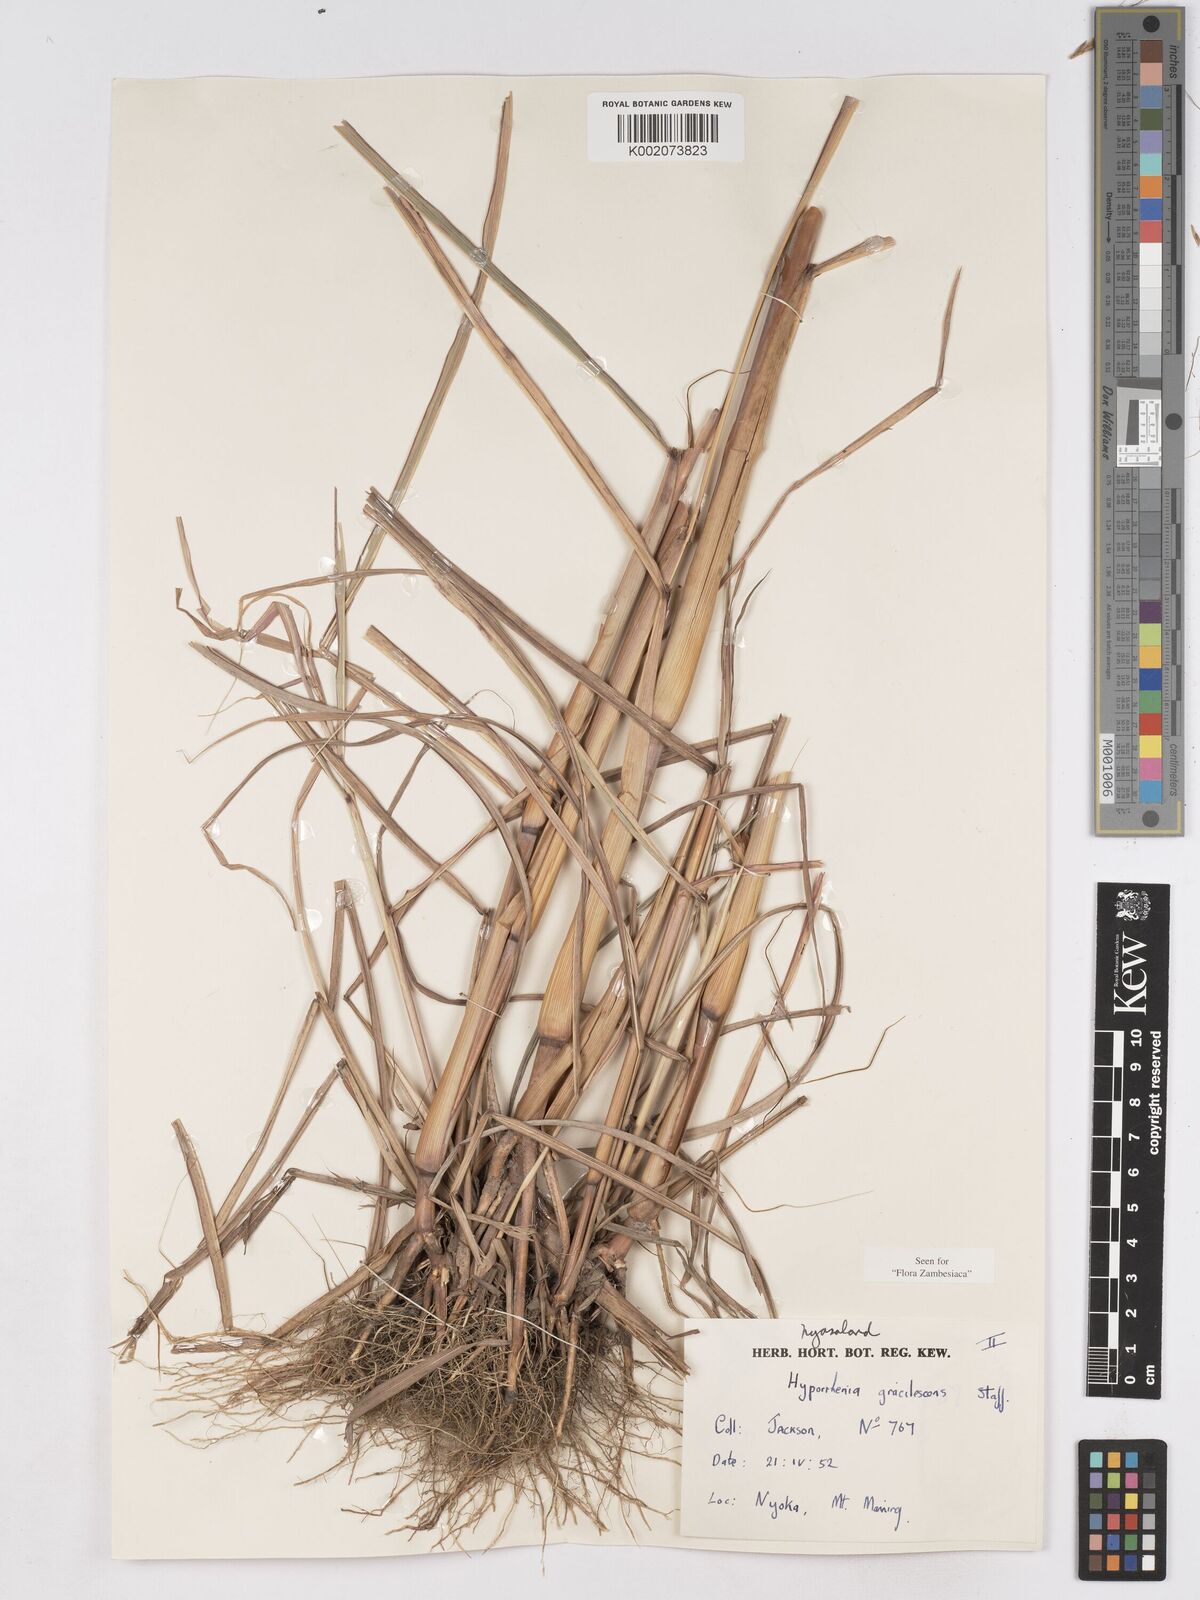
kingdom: Plantae
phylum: Tracheophyta
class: Liliopsida
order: Poales
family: Poaceae
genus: Hyparrhenia
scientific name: Hyparrhenia welwitschii
